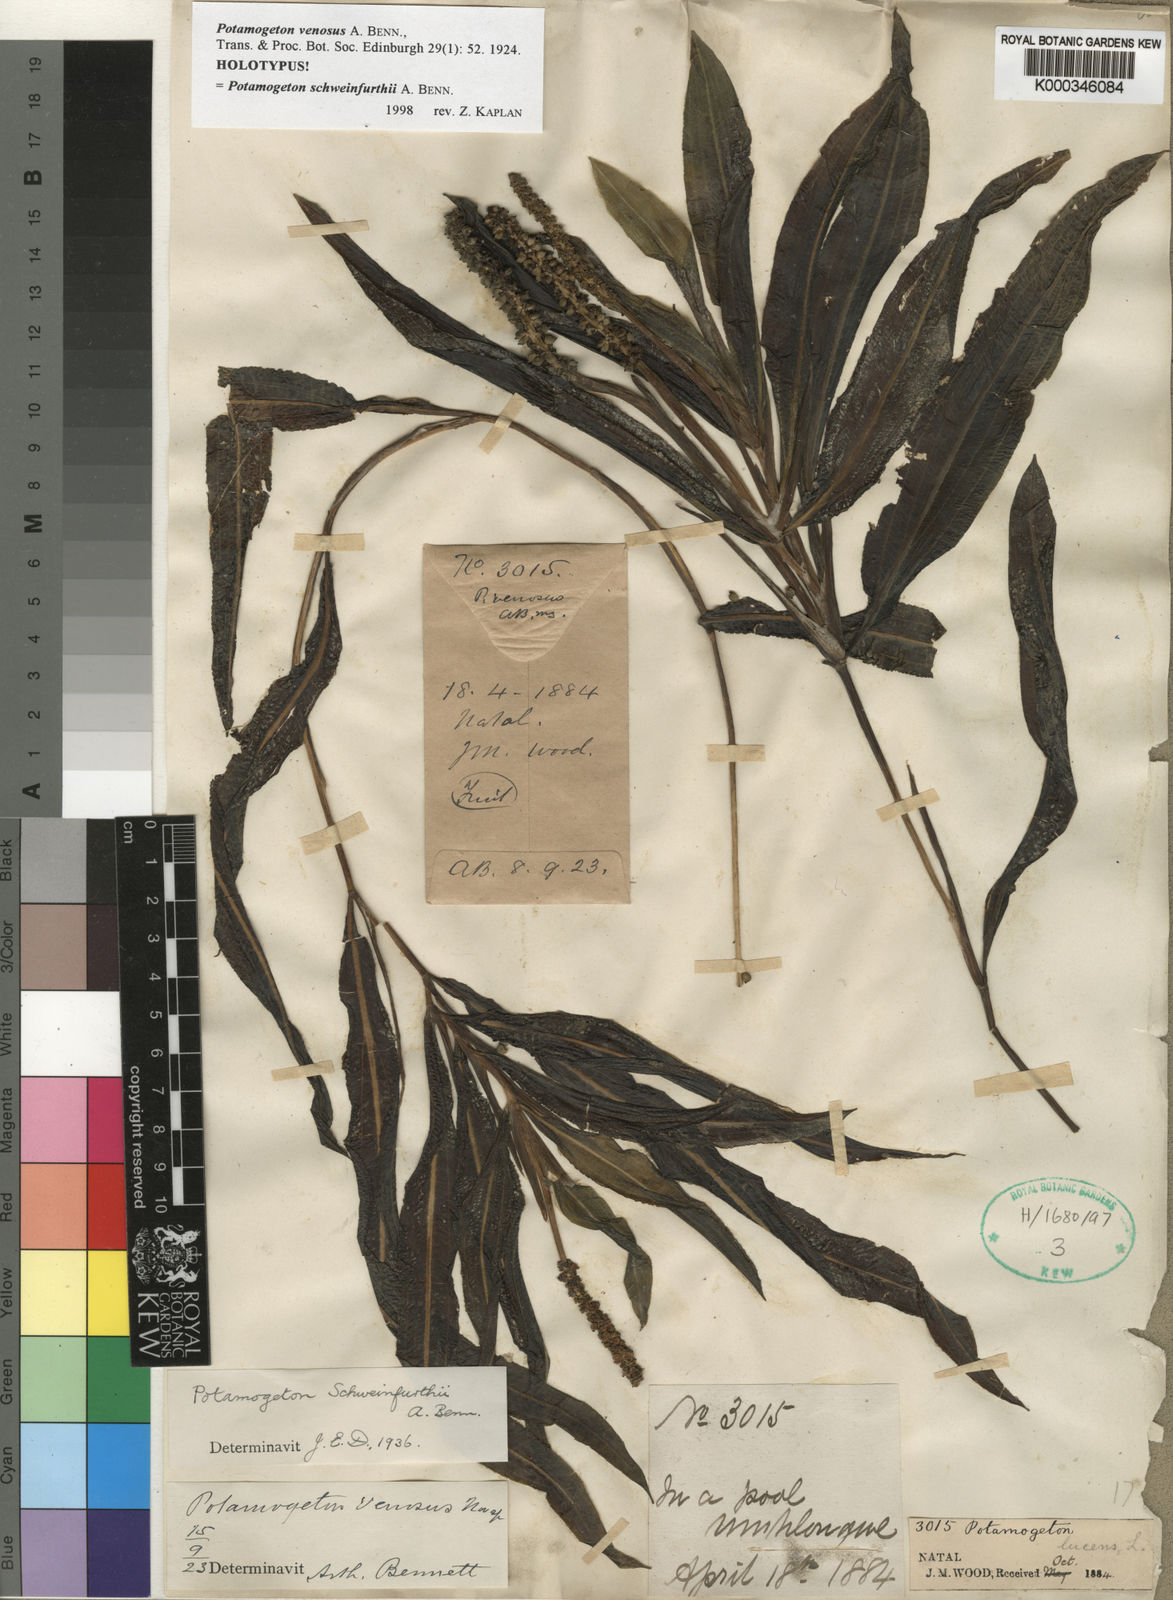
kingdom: Plantae
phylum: Tracheophyta
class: Liliopsida
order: Alismatales
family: Potamogetonaceae
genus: Potamogeton
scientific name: Potamogeton schweinfurthii
